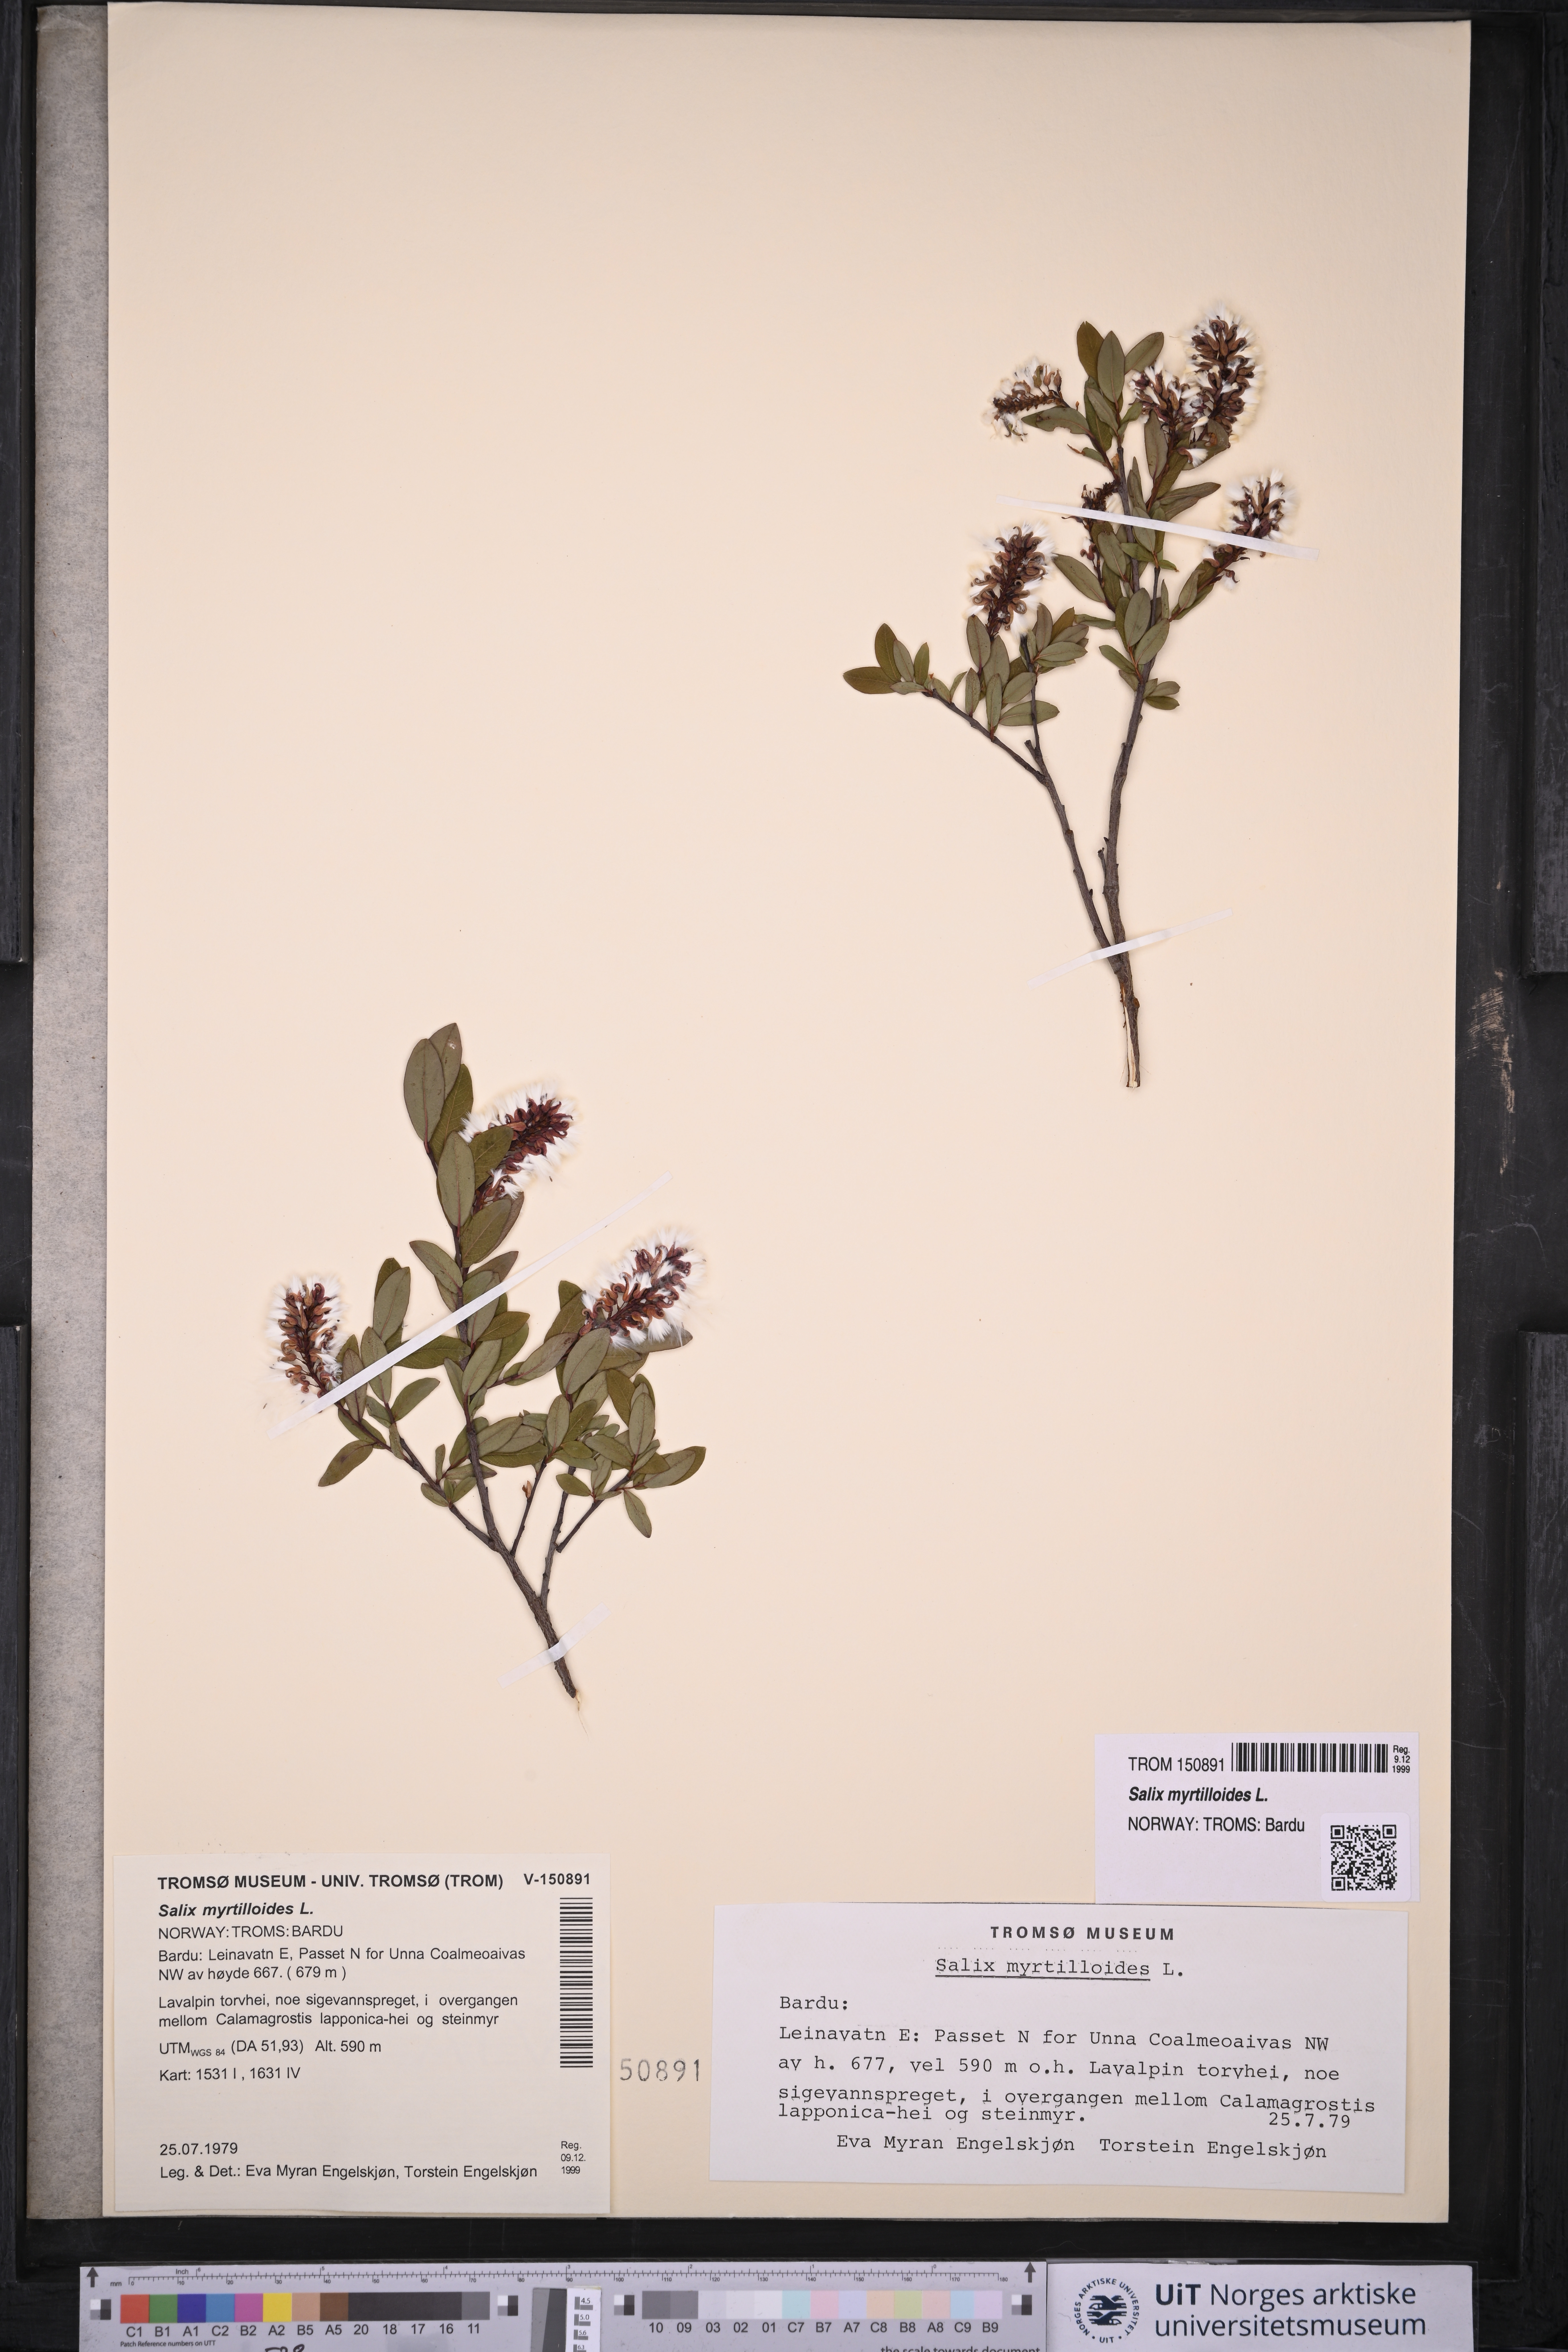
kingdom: Plantae
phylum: Tracheophyta
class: Magnoliopsida
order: Malpighiales
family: Salicaceae
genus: Salix
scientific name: Salix myrtilloides
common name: Myrtle-leaved willow
